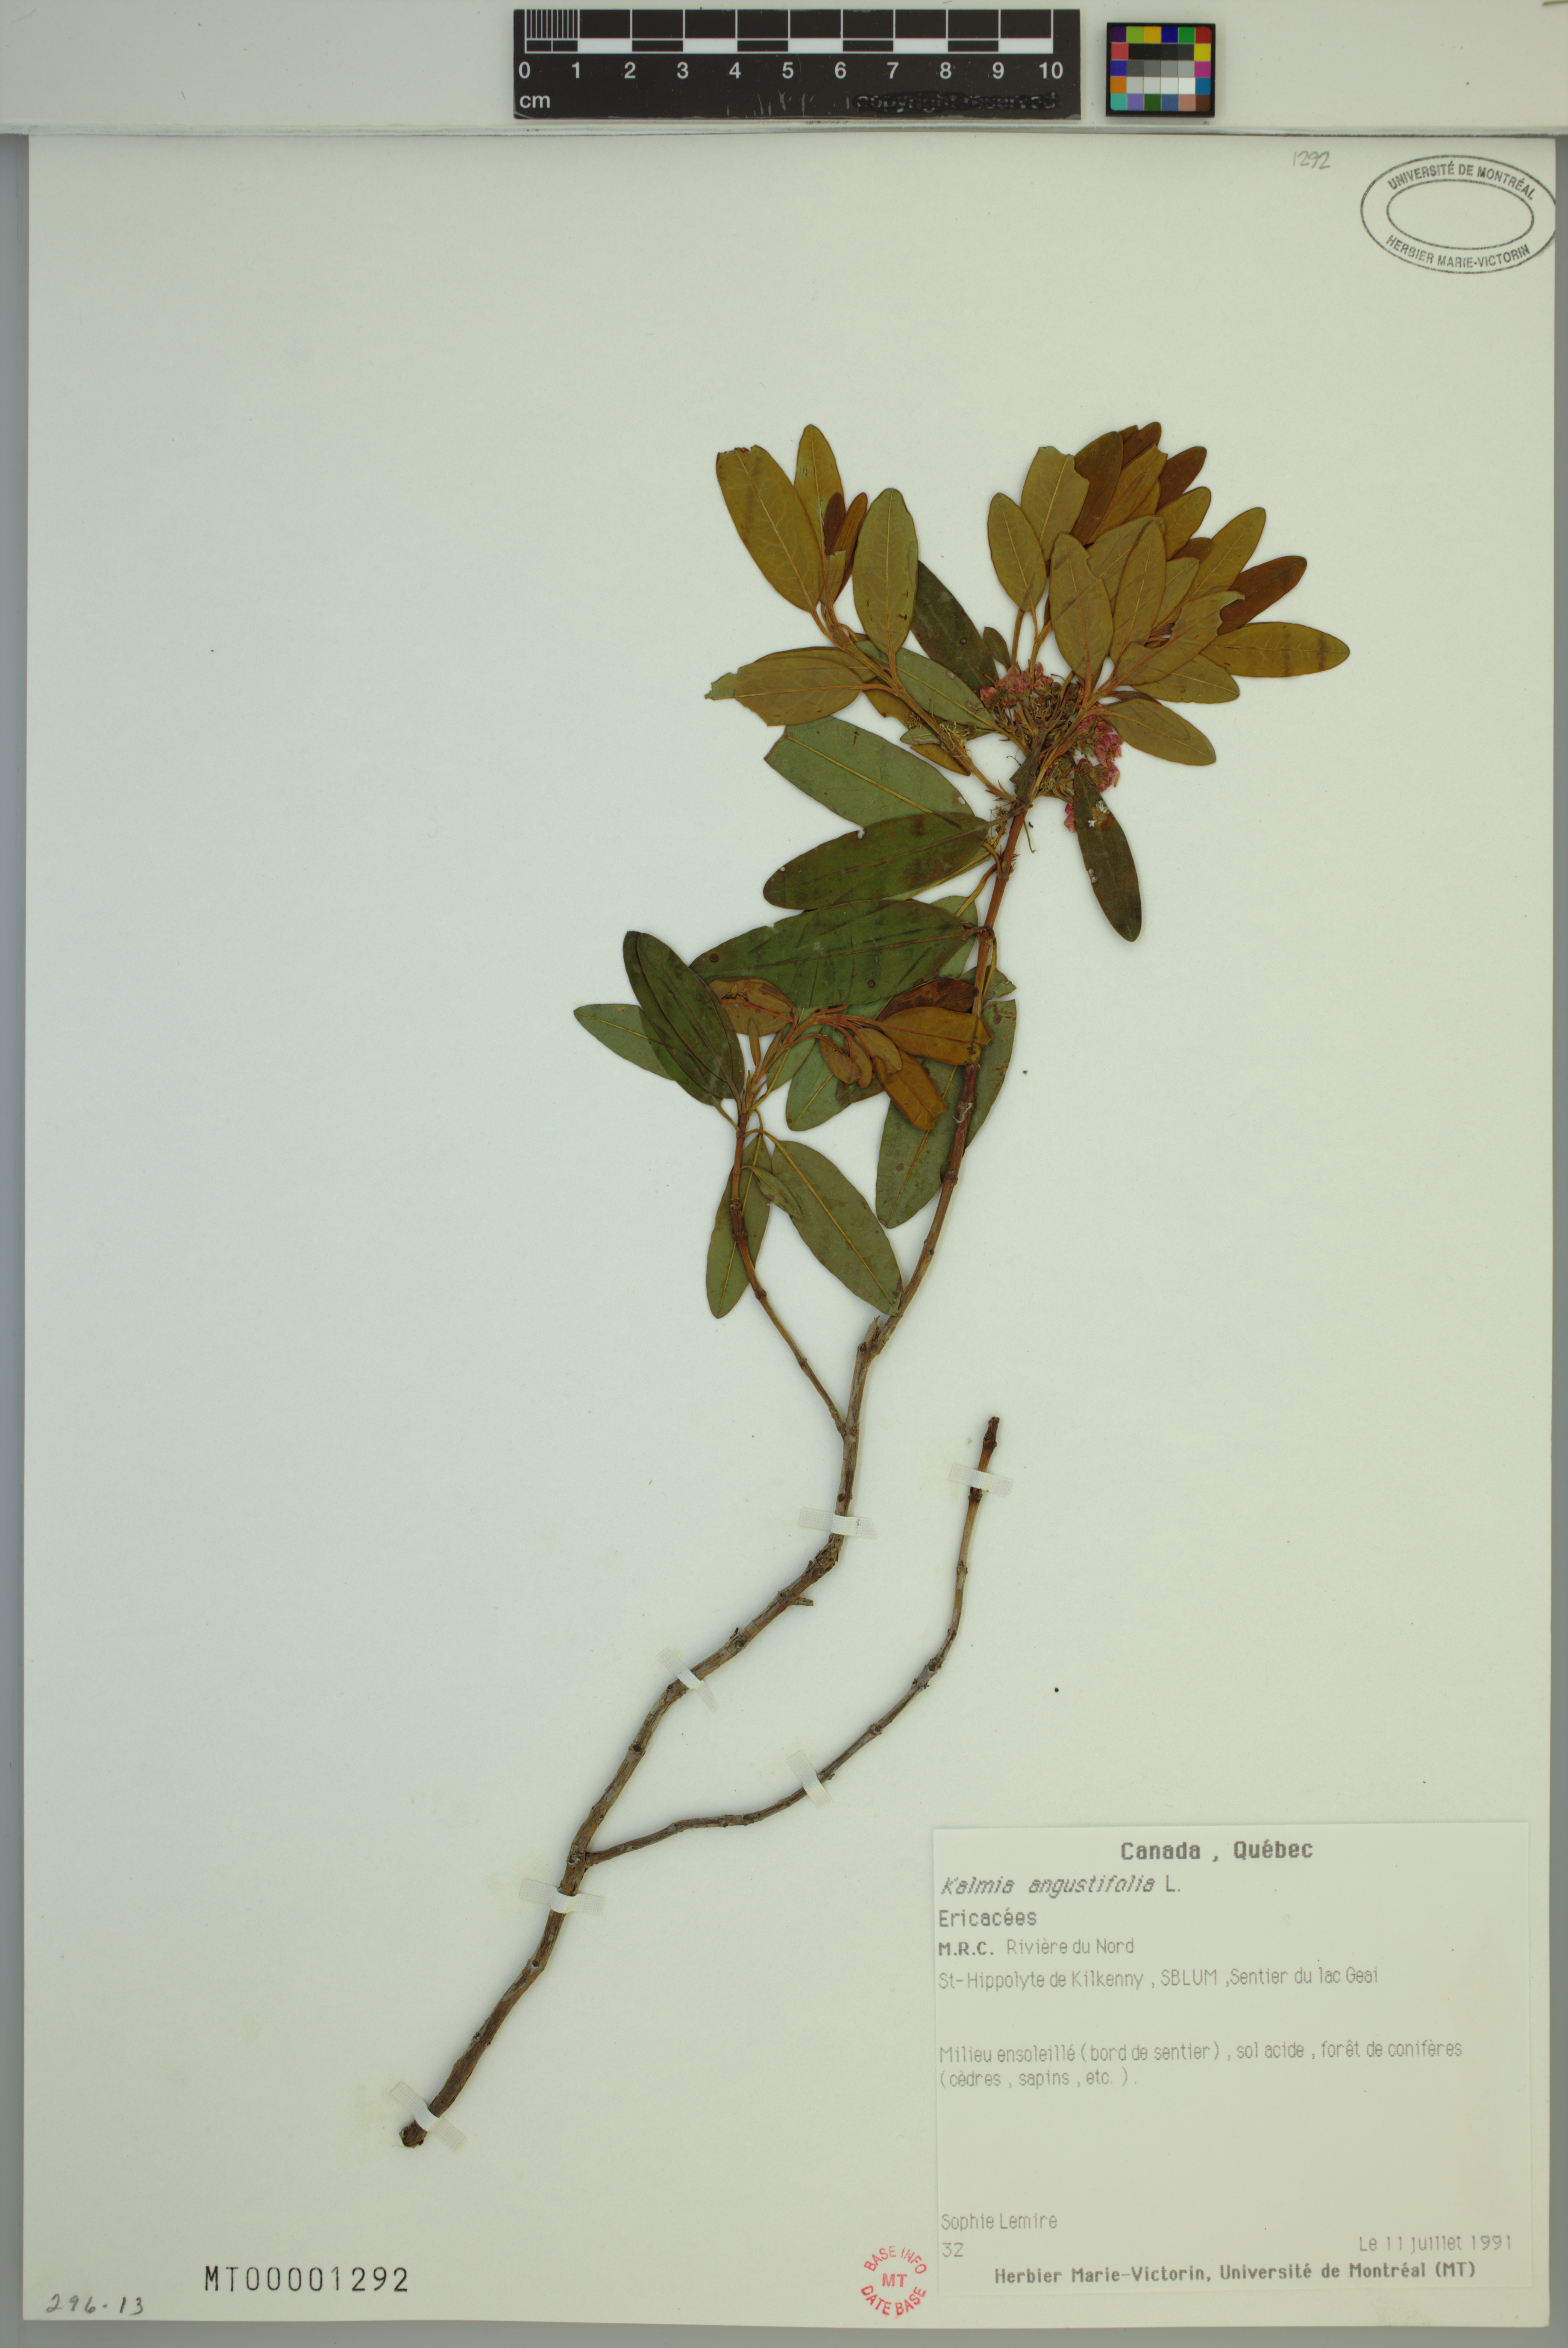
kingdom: Plantae
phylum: Tracheophyta
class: Magnoliopsida
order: Ericales
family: Ericaceae
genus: Kalmia
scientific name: Kalmia angustifolia
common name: Sheep-laurel
